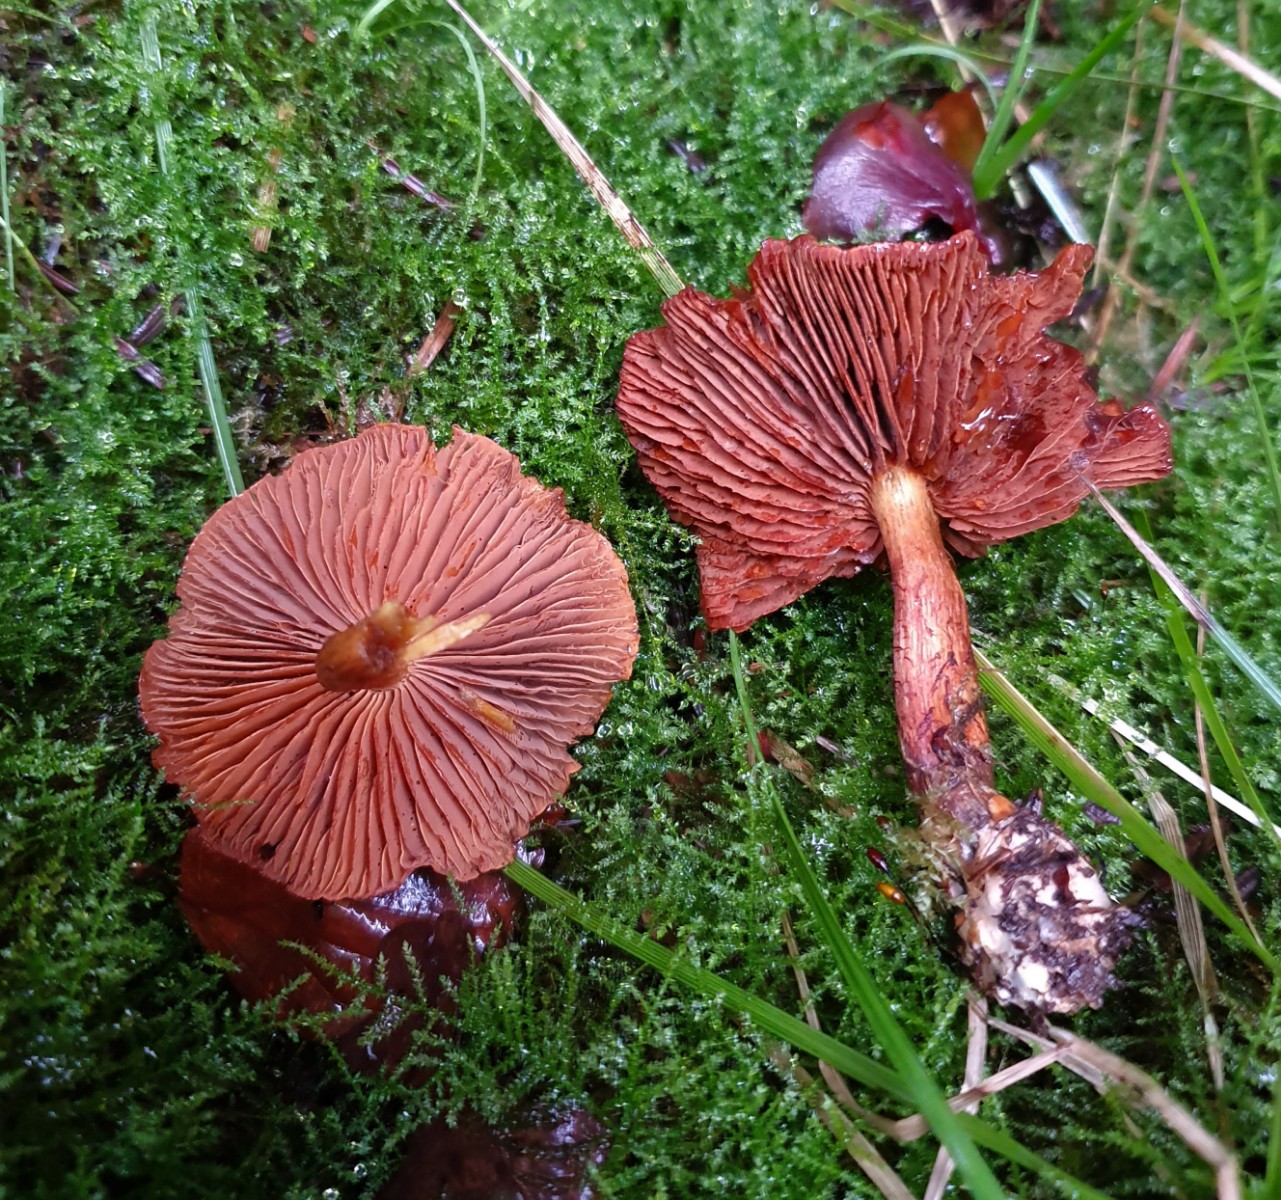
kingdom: Fungi
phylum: Basidiomycota
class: Agaricomycetes
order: Agaricales
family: Cortinariaceae
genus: Cortinarius
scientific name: Cortinarius
